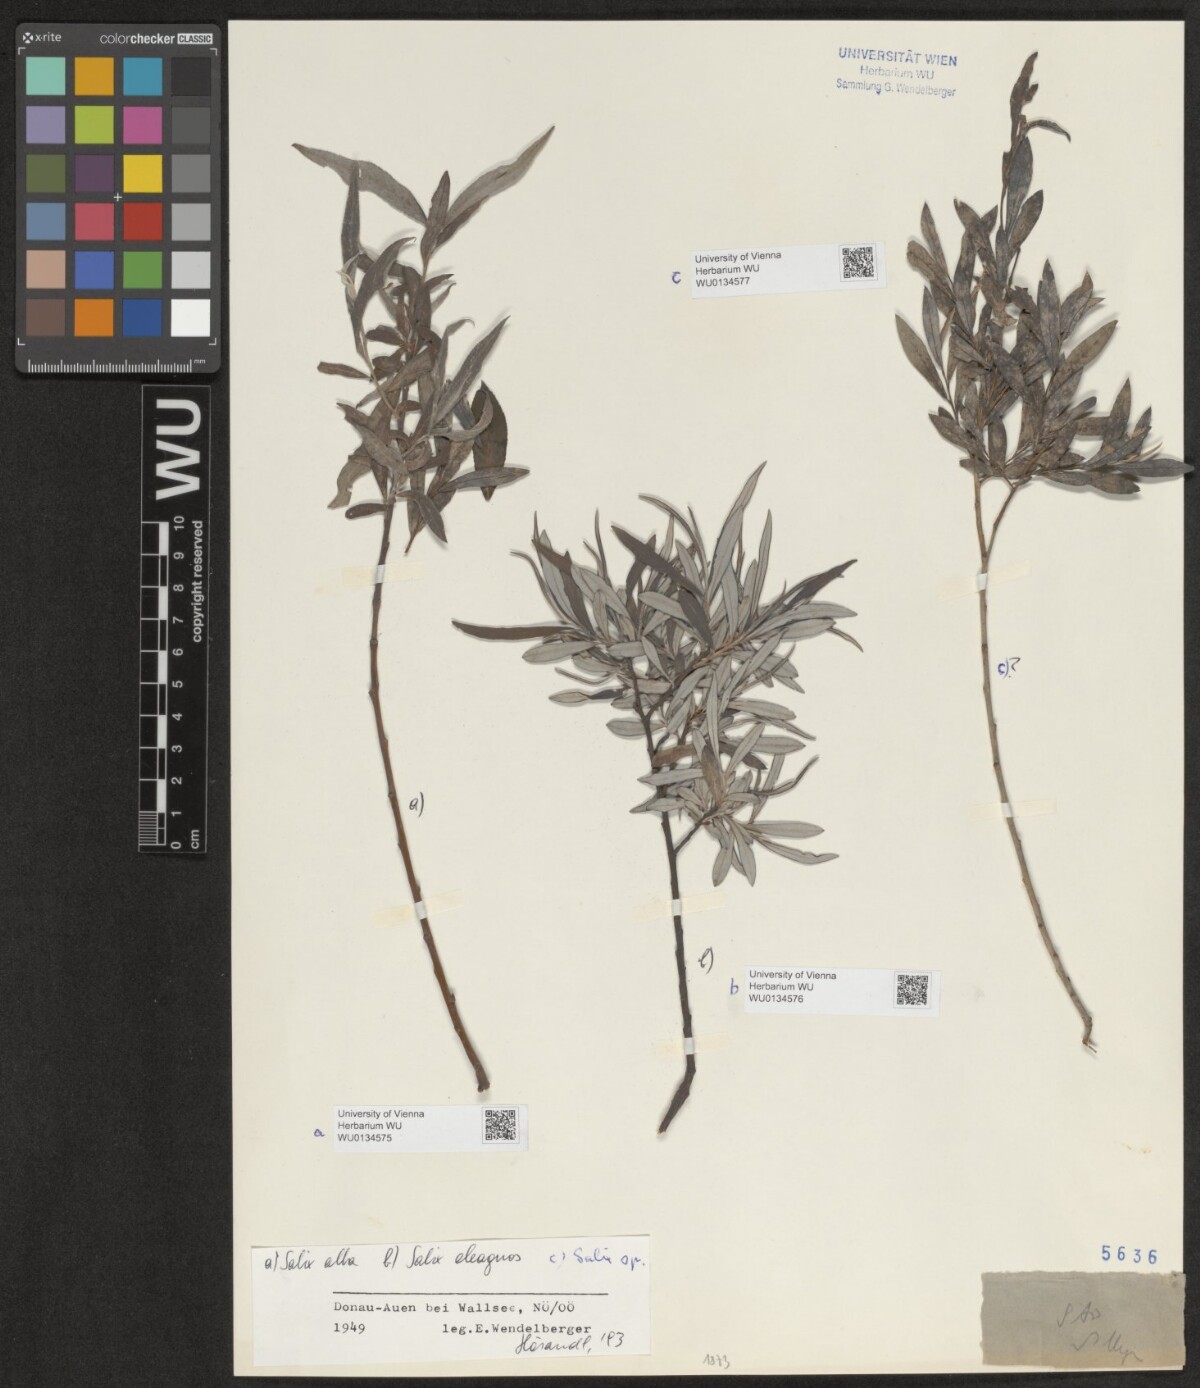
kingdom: Plantae
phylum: Tracheophyta
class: Magnoliopsida
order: Malpighiales
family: Salicaceae
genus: Salix
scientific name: Salix alba
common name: White willow
